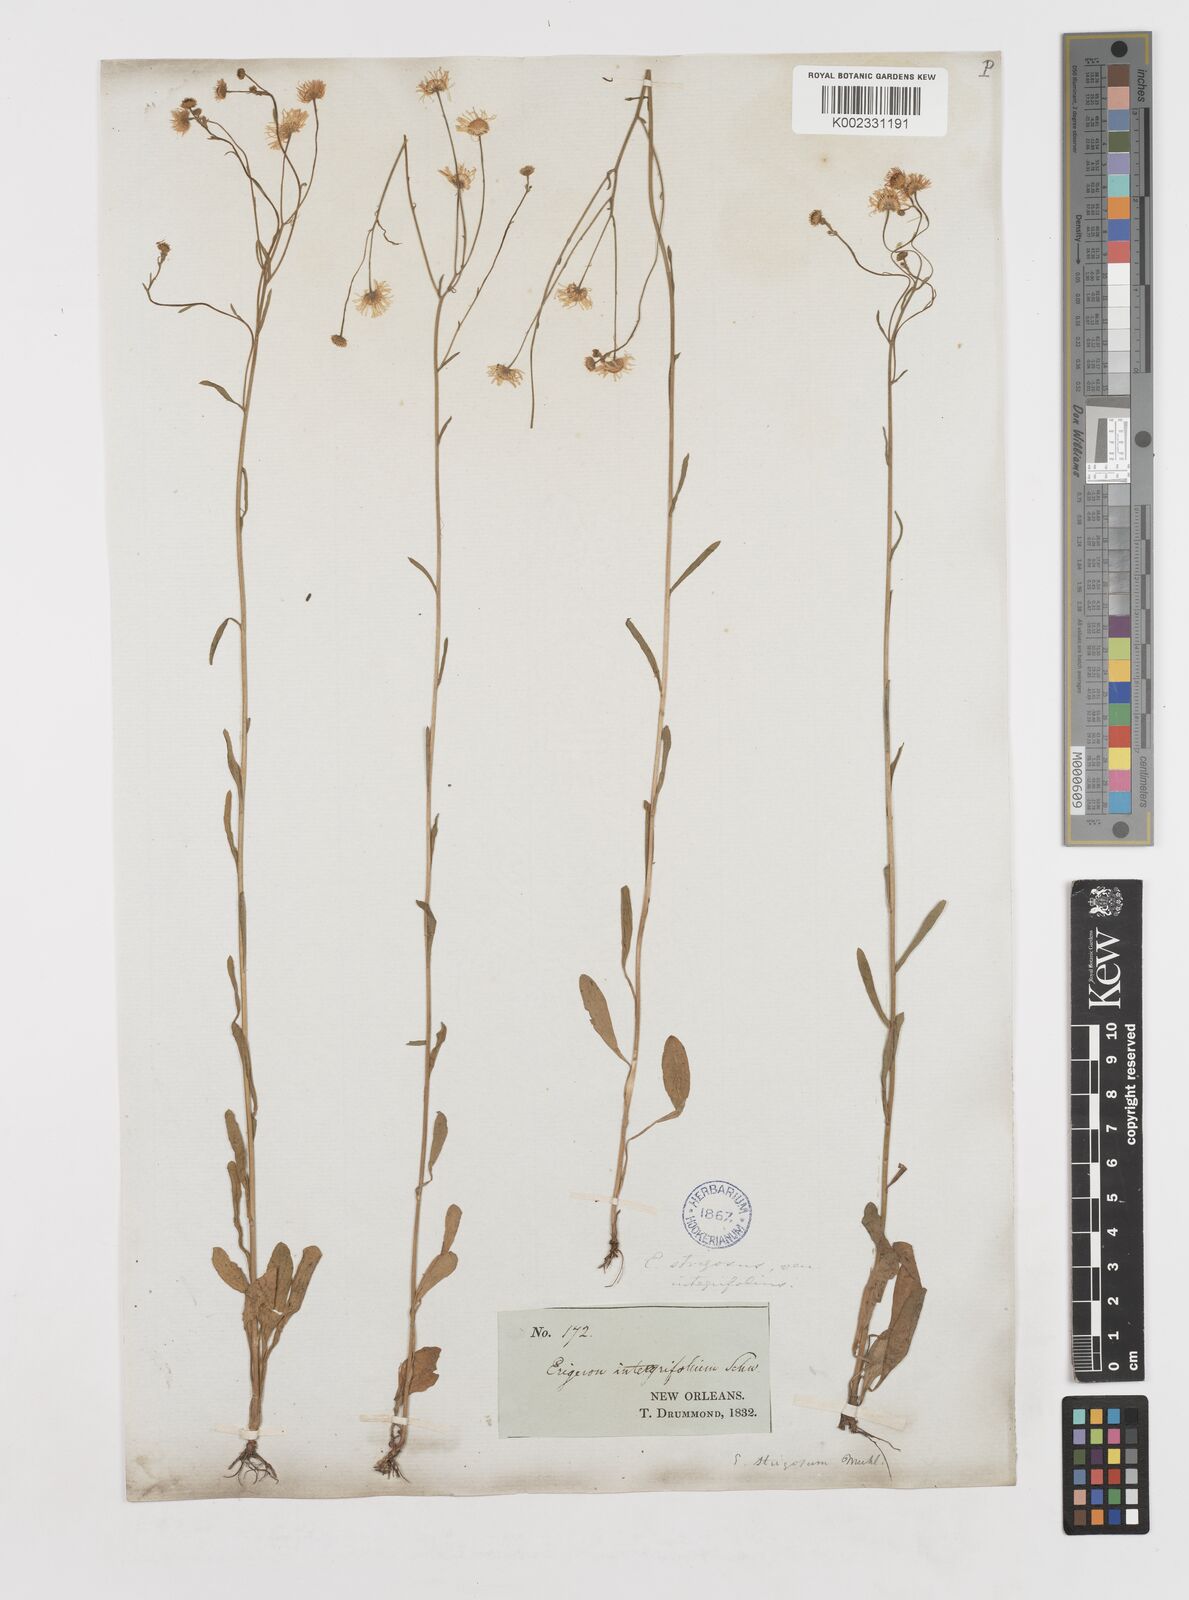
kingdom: Plantae
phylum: Tracheophyta
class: Magnoliopsida
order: Asterales
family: Asteraceae
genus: Erigeron
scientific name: Erigeron strigosus
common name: Common eastern fleabane
